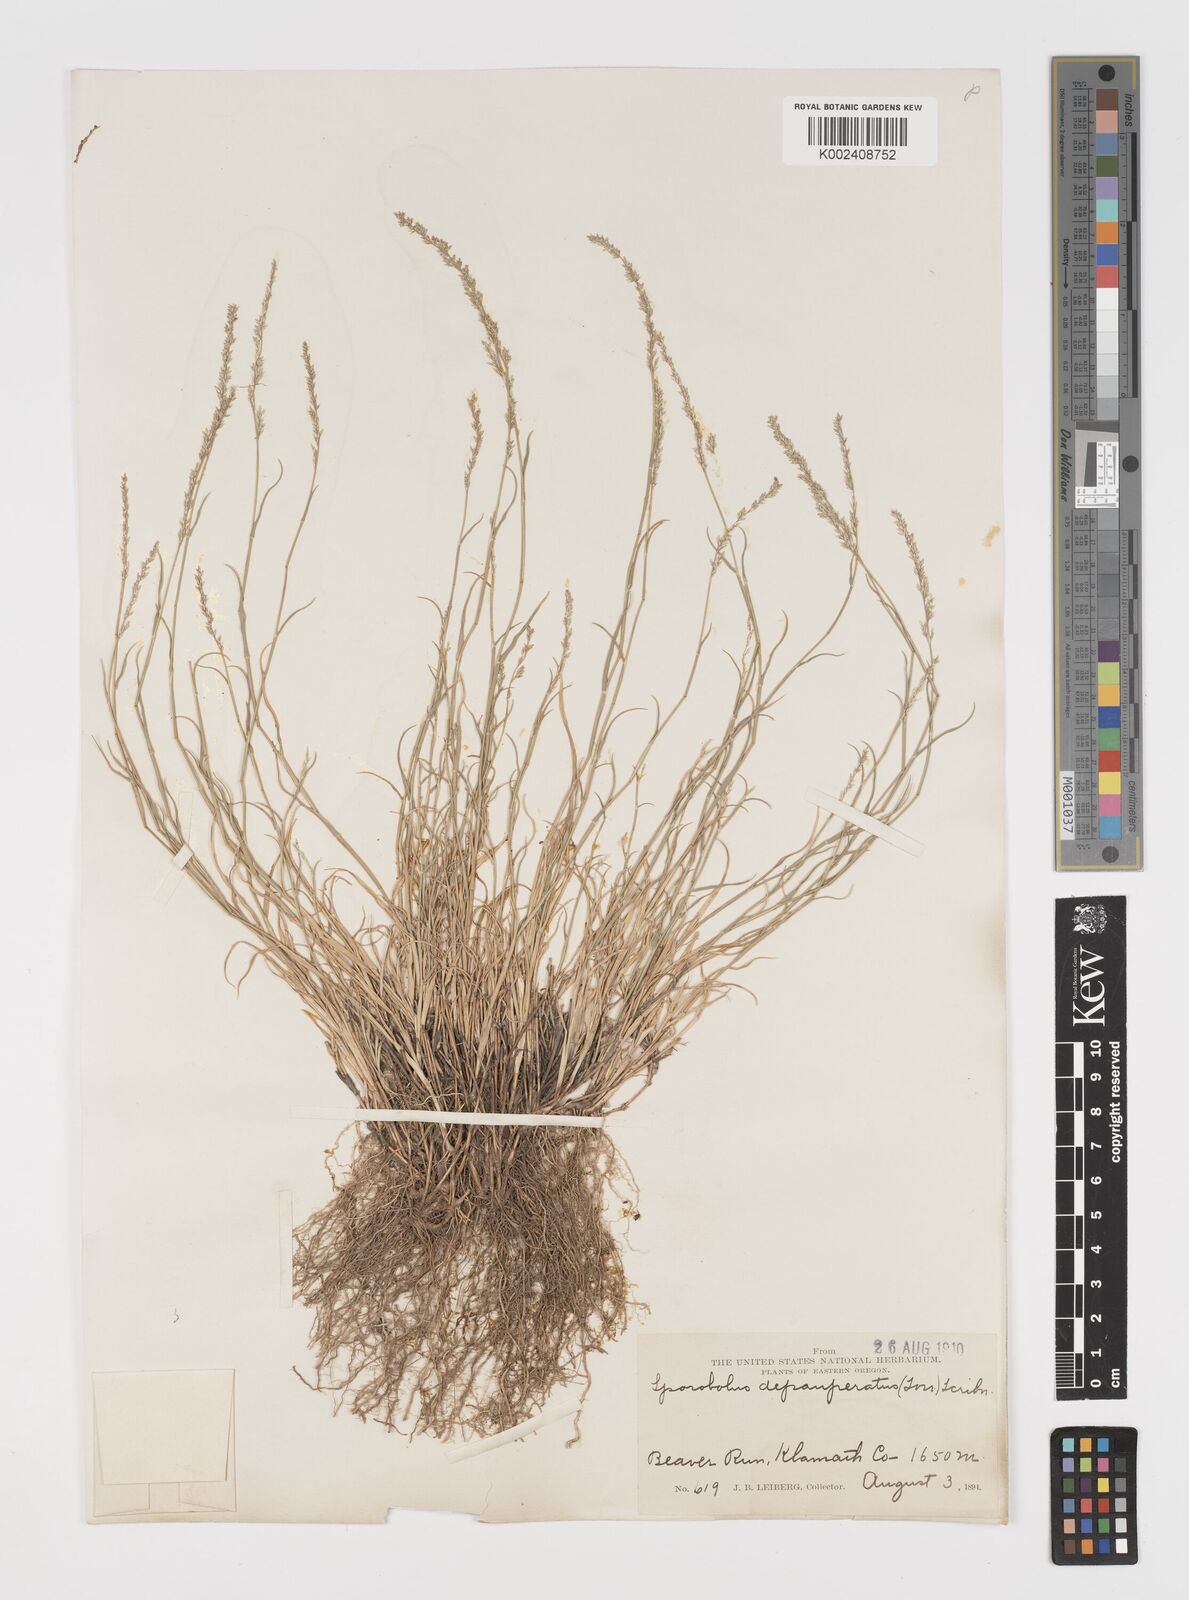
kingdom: Plantae
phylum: Tracheophyta
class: Liliopsida
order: Poales
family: Poaceae
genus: Muhlenbergia
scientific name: Muhlenbergia richardsonis
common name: Mat muhly
